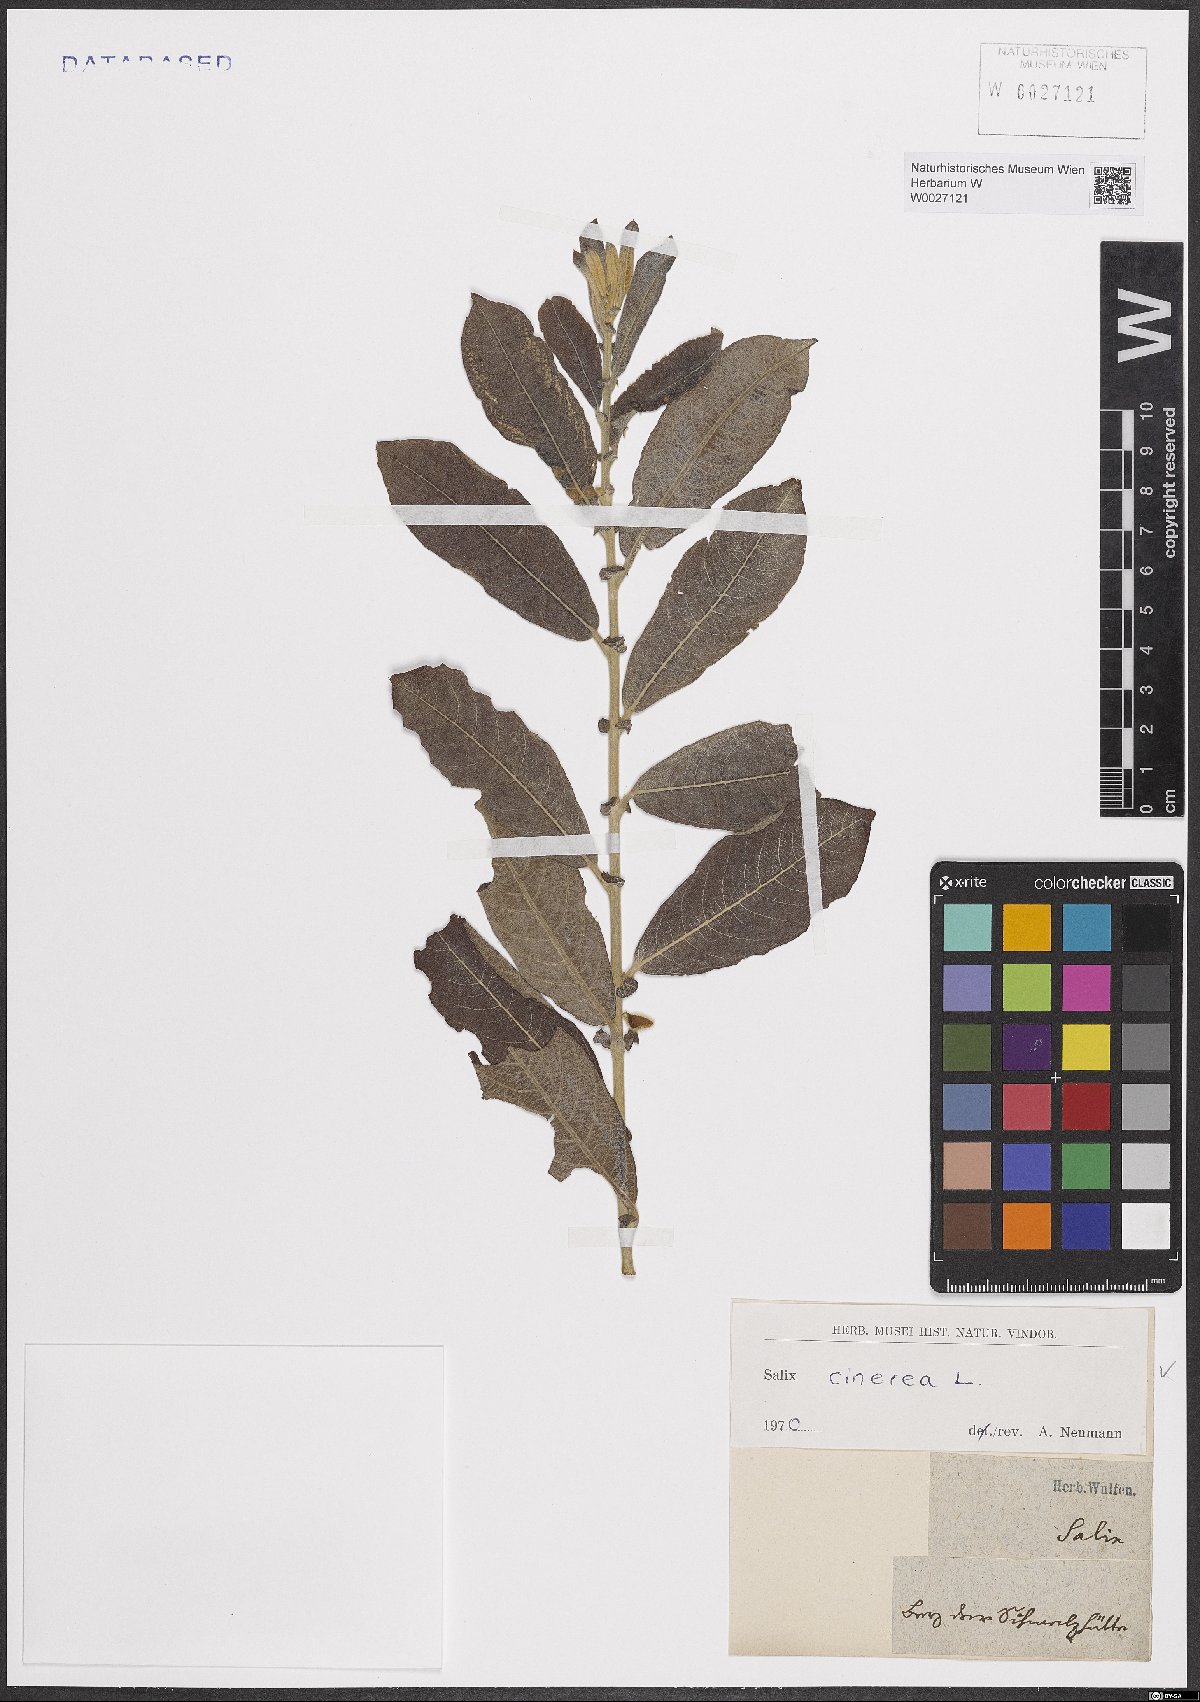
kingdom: Plantae
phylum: Tracheophyta
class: Magnoliopsida
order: Malpighiales
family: Salicaceae
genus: Salix
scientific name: Salix cinerea
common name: Common sallow
